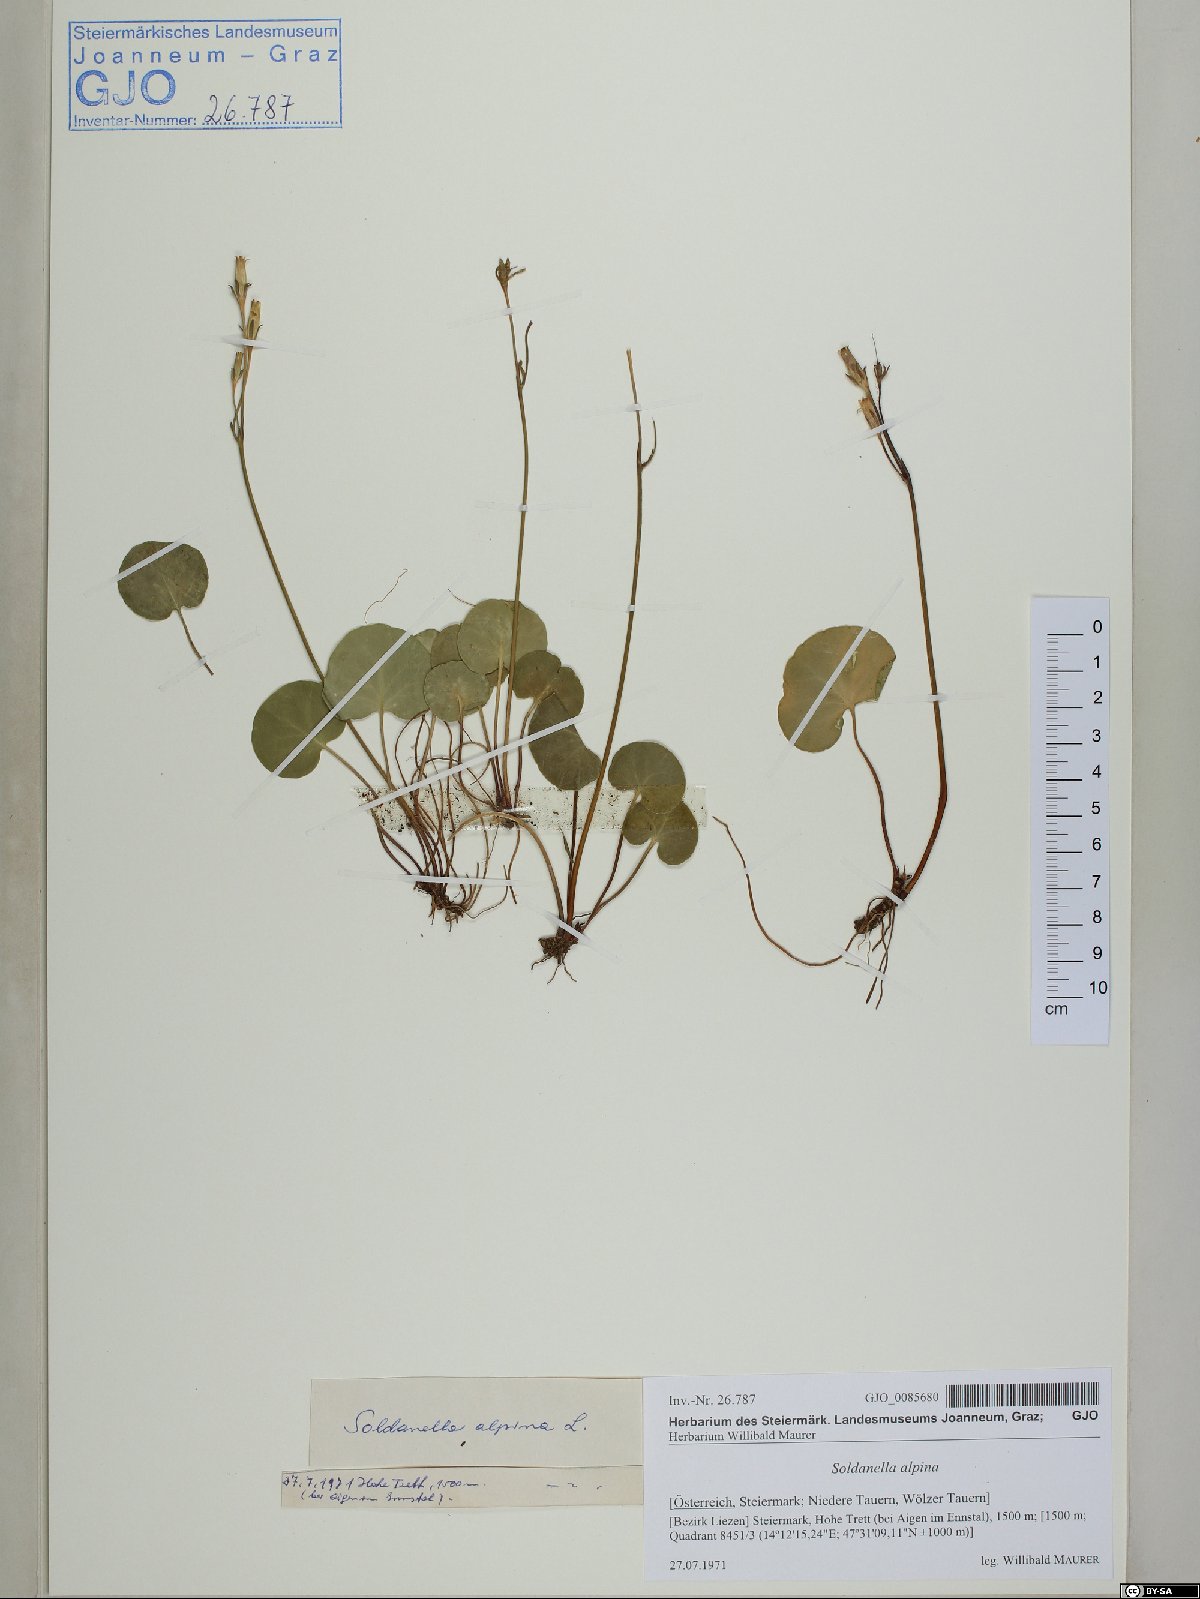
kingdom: Plantae
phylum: Tracheophyta
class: Magnoliopsida
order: Ericales
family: Primulaceae
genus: Soldanella
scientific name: Soldanella alpina
